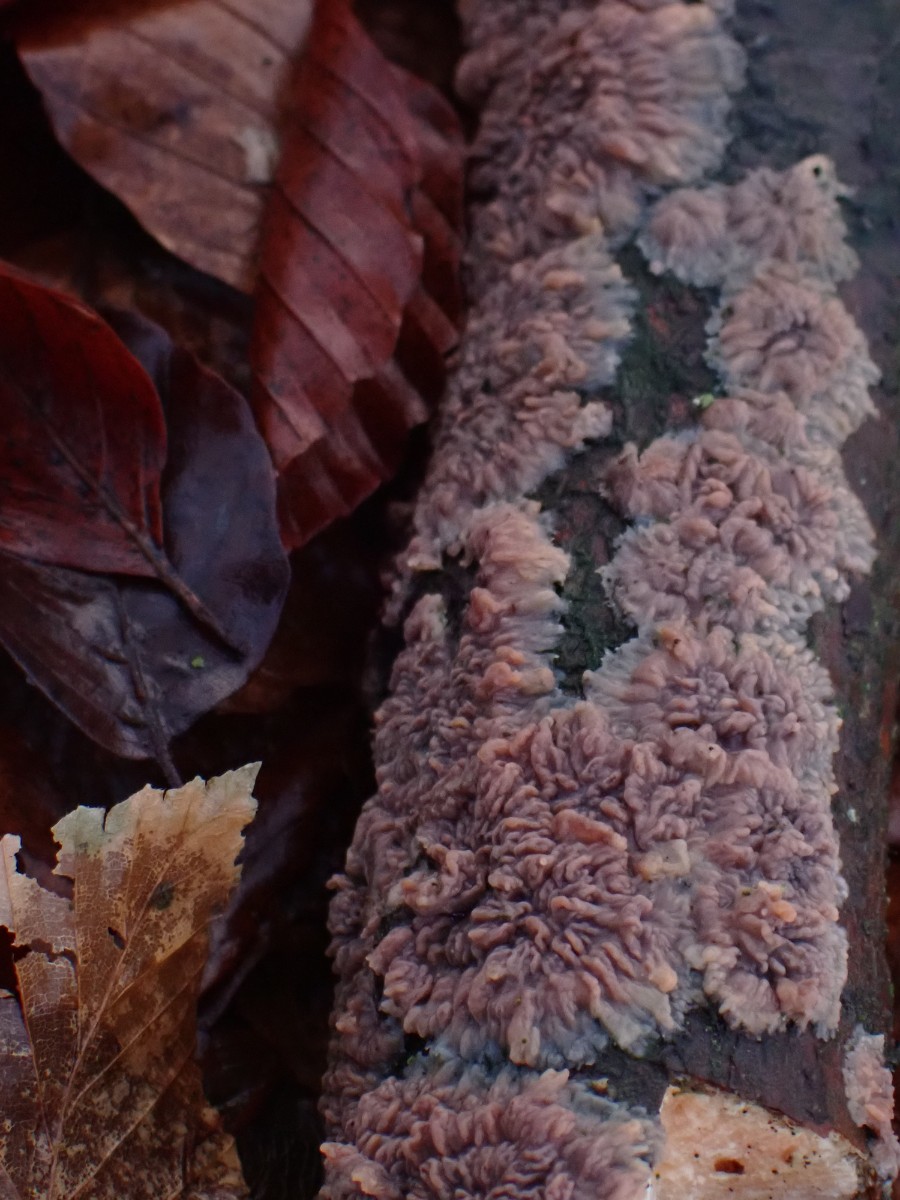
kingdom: Fungi
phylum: Basidiomycota
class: Agaricomycetes
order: Polyporales
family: Meruliaceae
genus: Phlebia
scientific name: Phlebia radiata
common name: stråle-åresvamp
